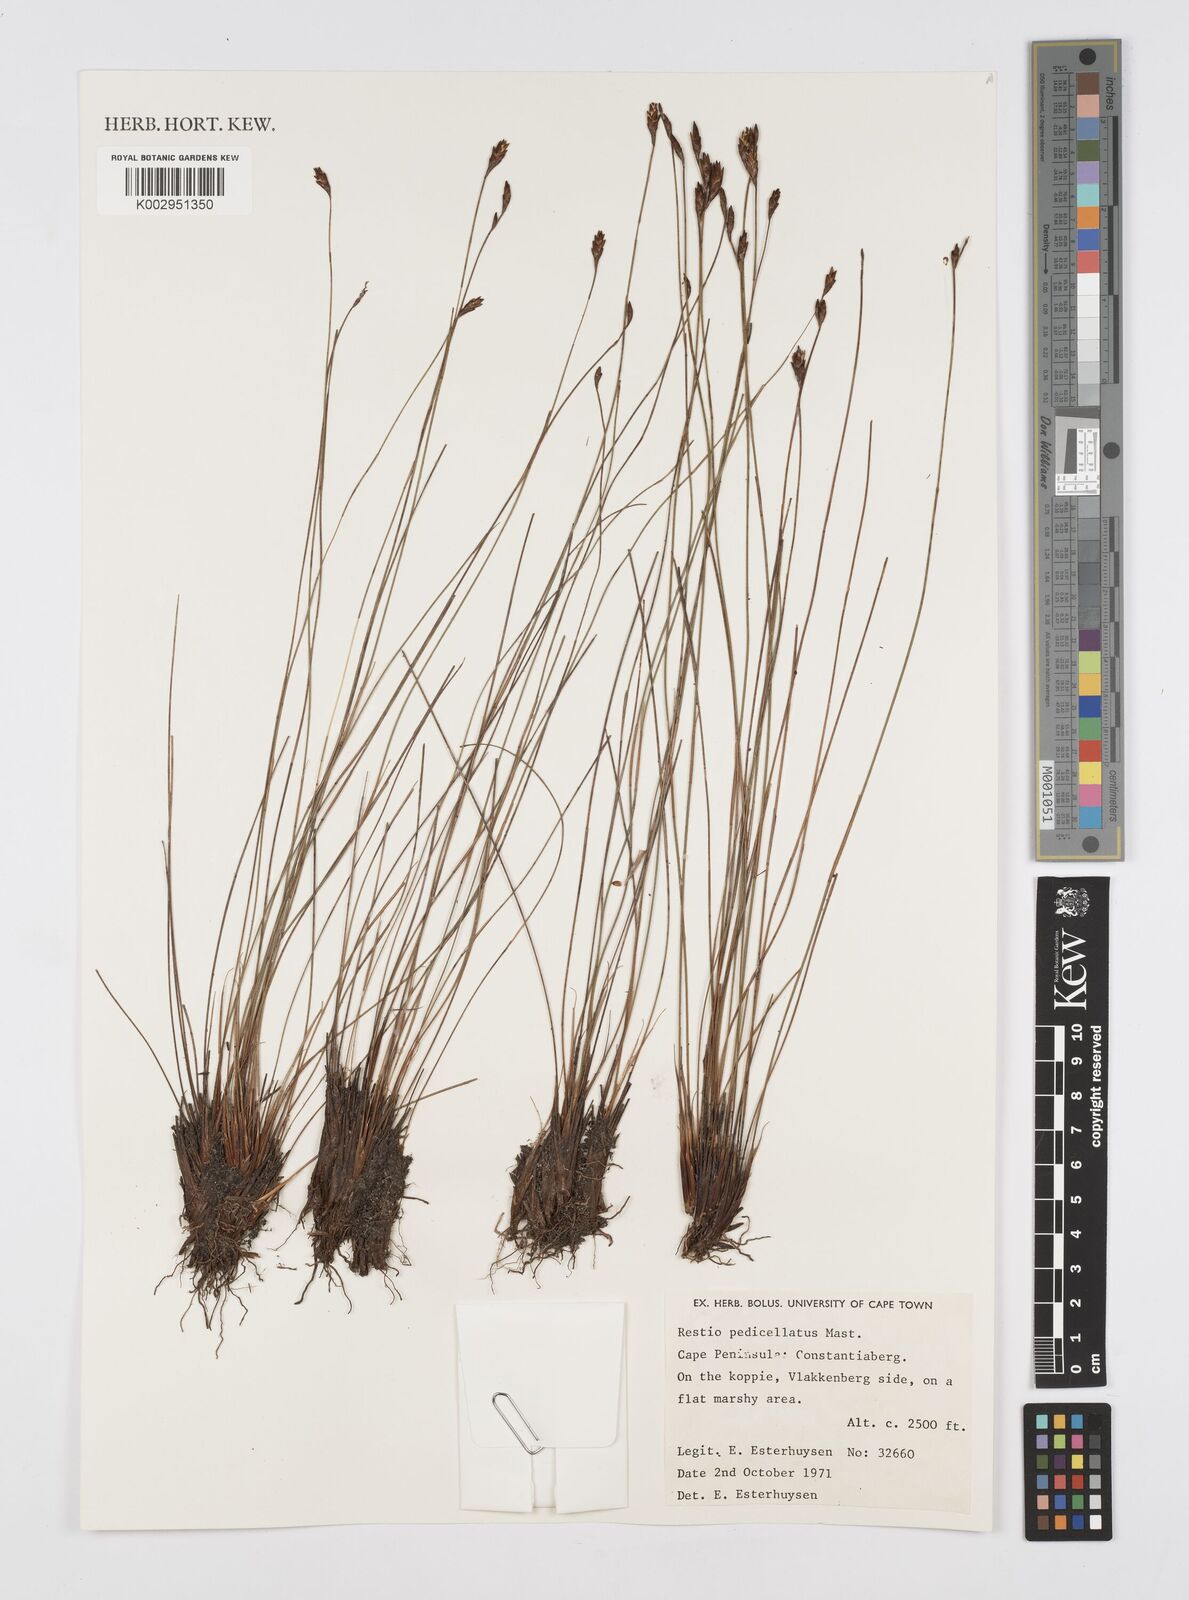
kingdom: Plantae
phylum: Tracheophyta
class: Liliopsida
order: Poales
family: Restionaceae
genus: Restio
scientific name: Restio pedicellatus
